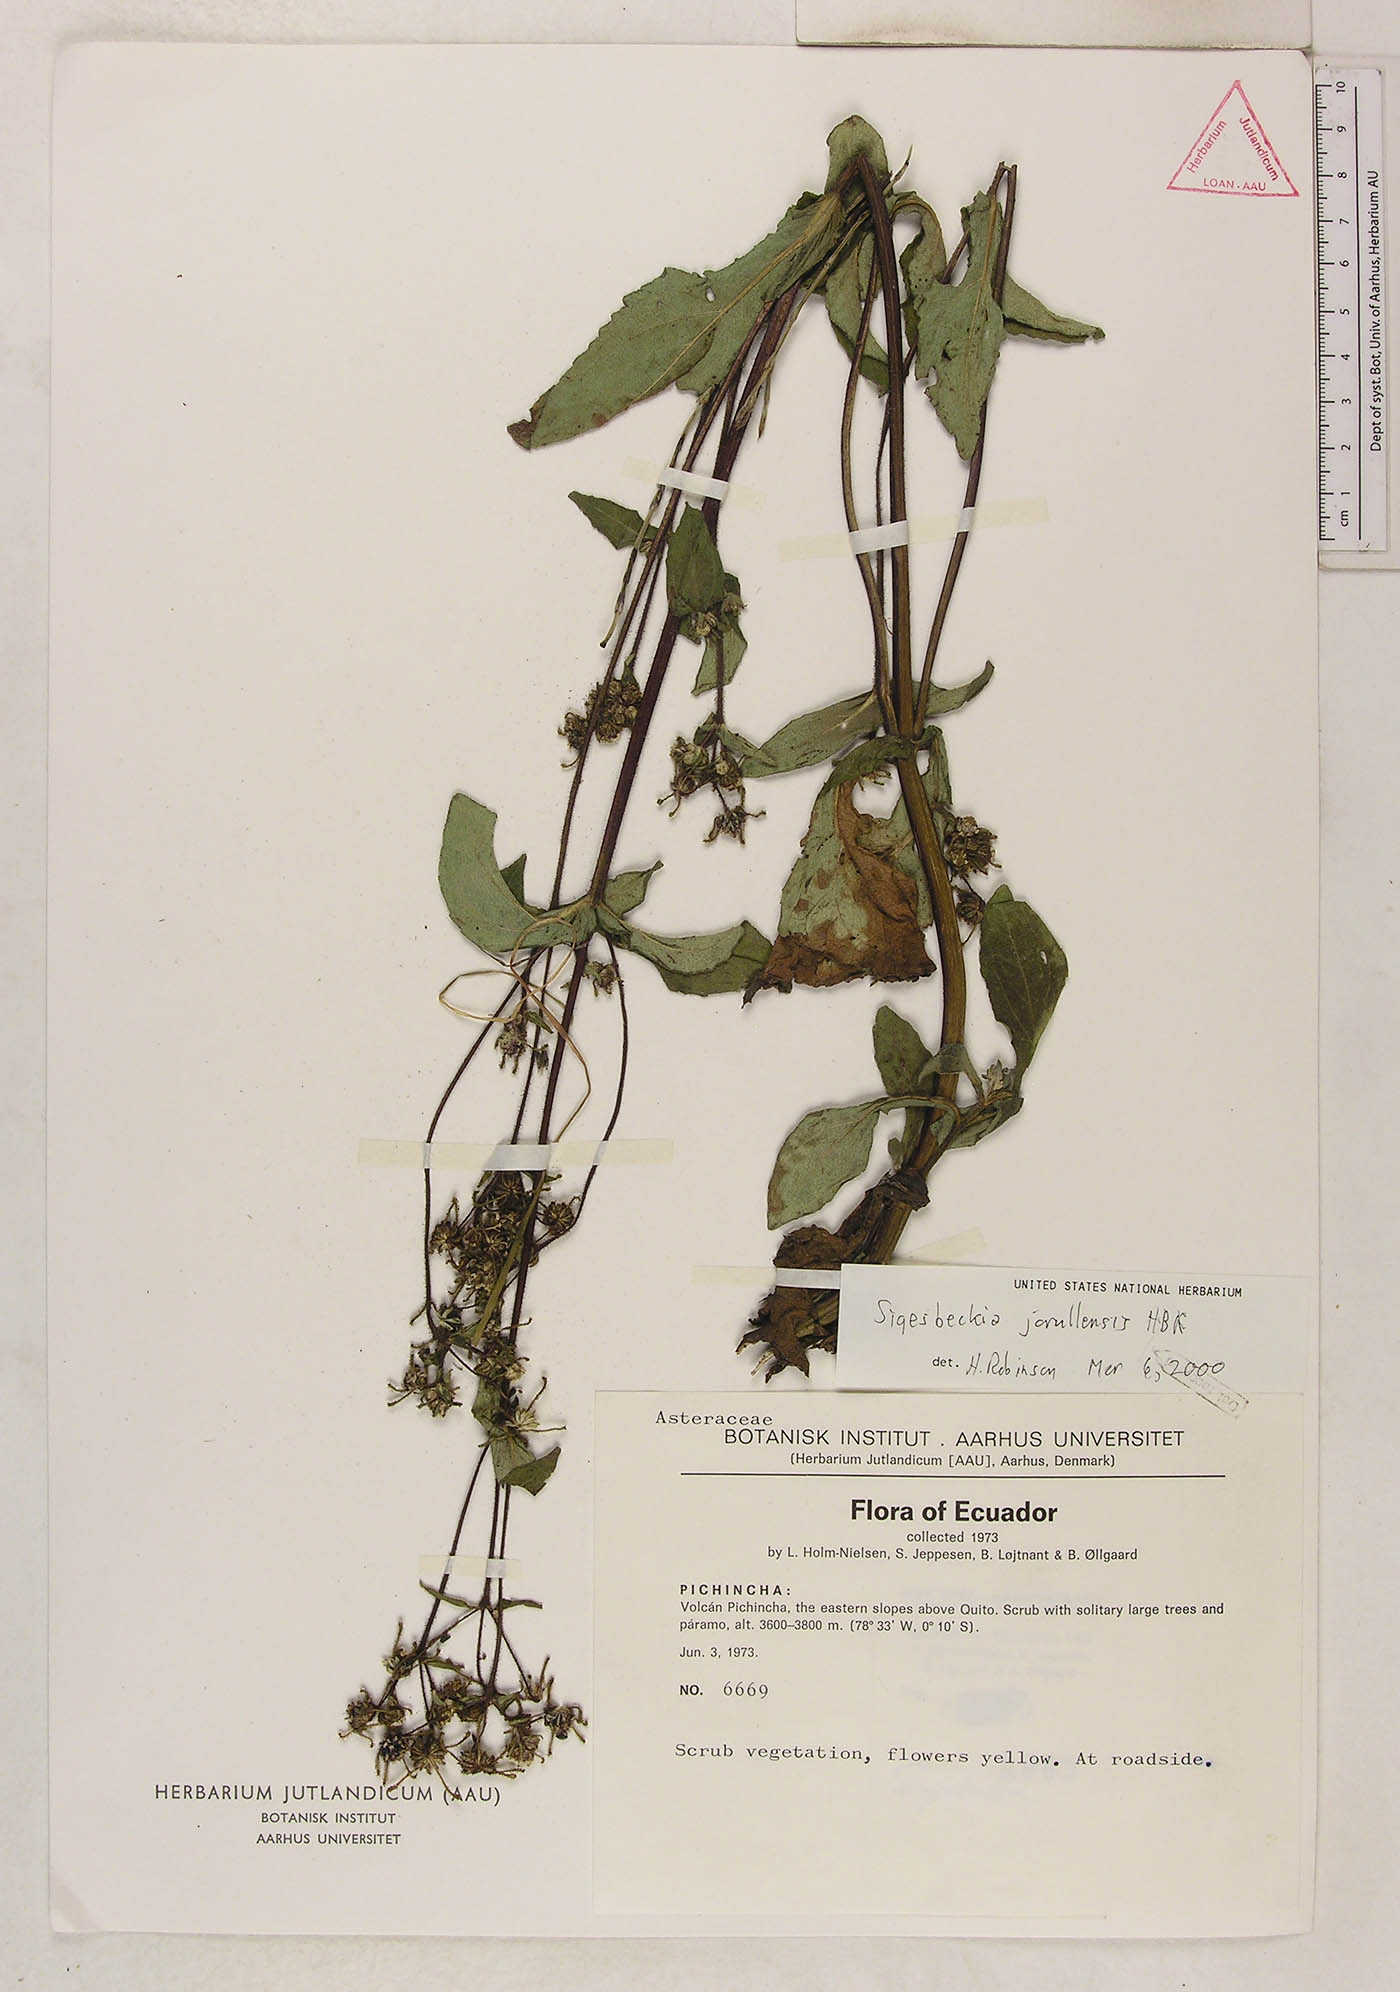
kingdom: Plantae
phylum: Tracheophyta
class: Magnoliopsida
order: Asterales
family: Asteraceae
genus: Sigesbeckia
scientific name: Sigesbeckia jorullensis
